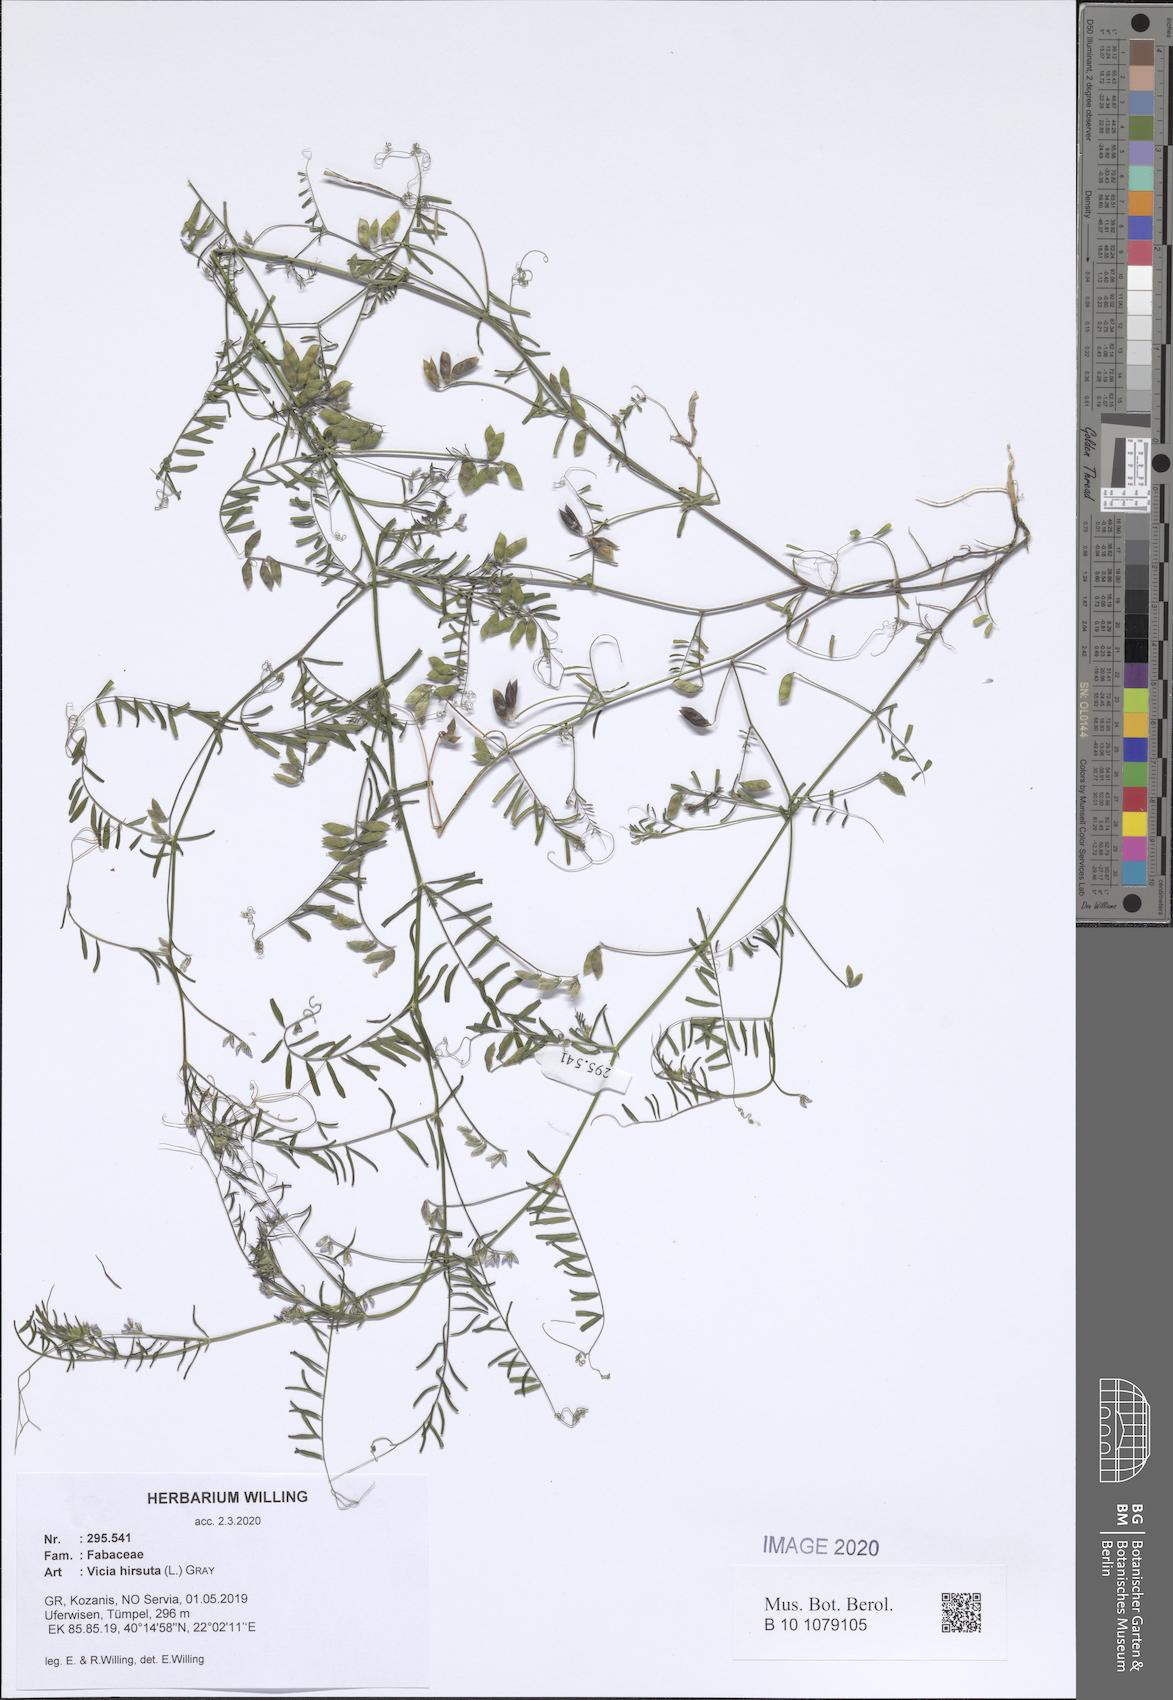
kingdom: Plantae
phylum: Tracheophyta
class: Magnoliopsida
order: Fabales
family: Fabaceae
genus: Vicia
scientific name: Vicia hirsuta
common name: Tiny vetch
